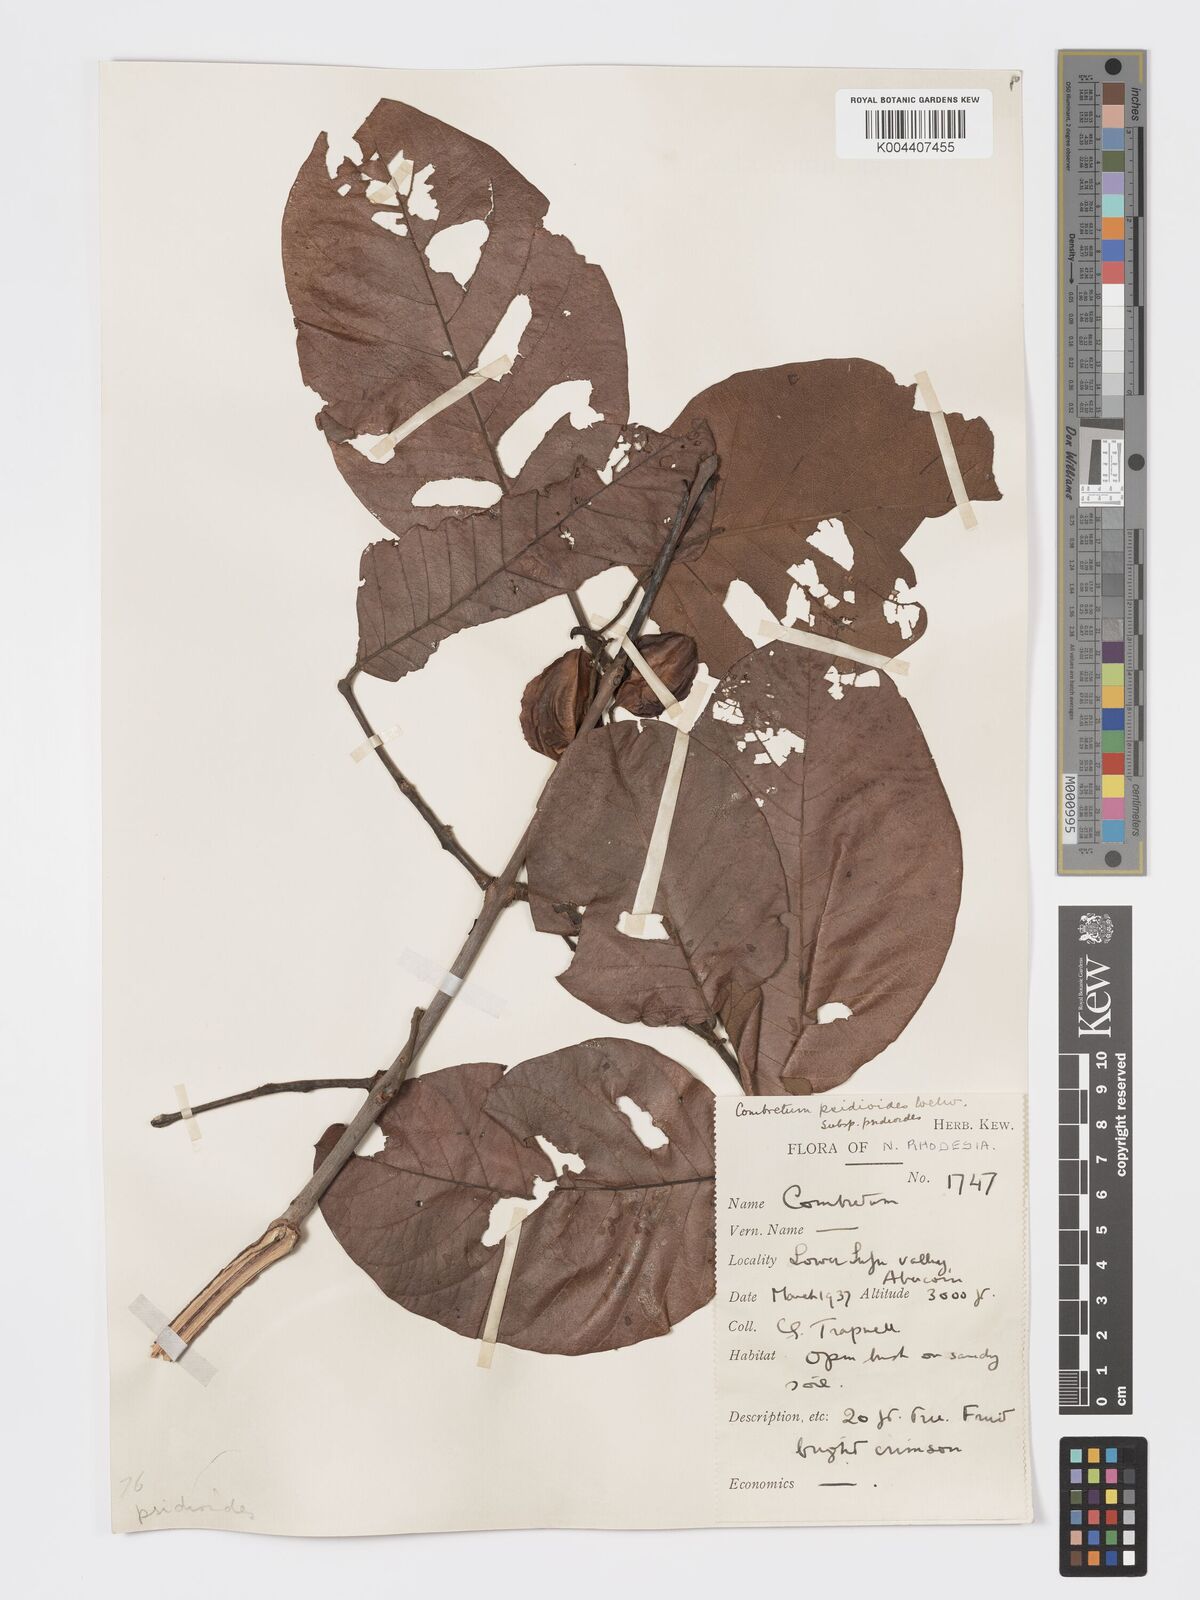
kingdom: Plantae
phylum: Tracheophyta
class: Magnoliopsida
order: Myrtales
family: Combretaceae
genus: Combretum
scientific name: Combretum psidioides
